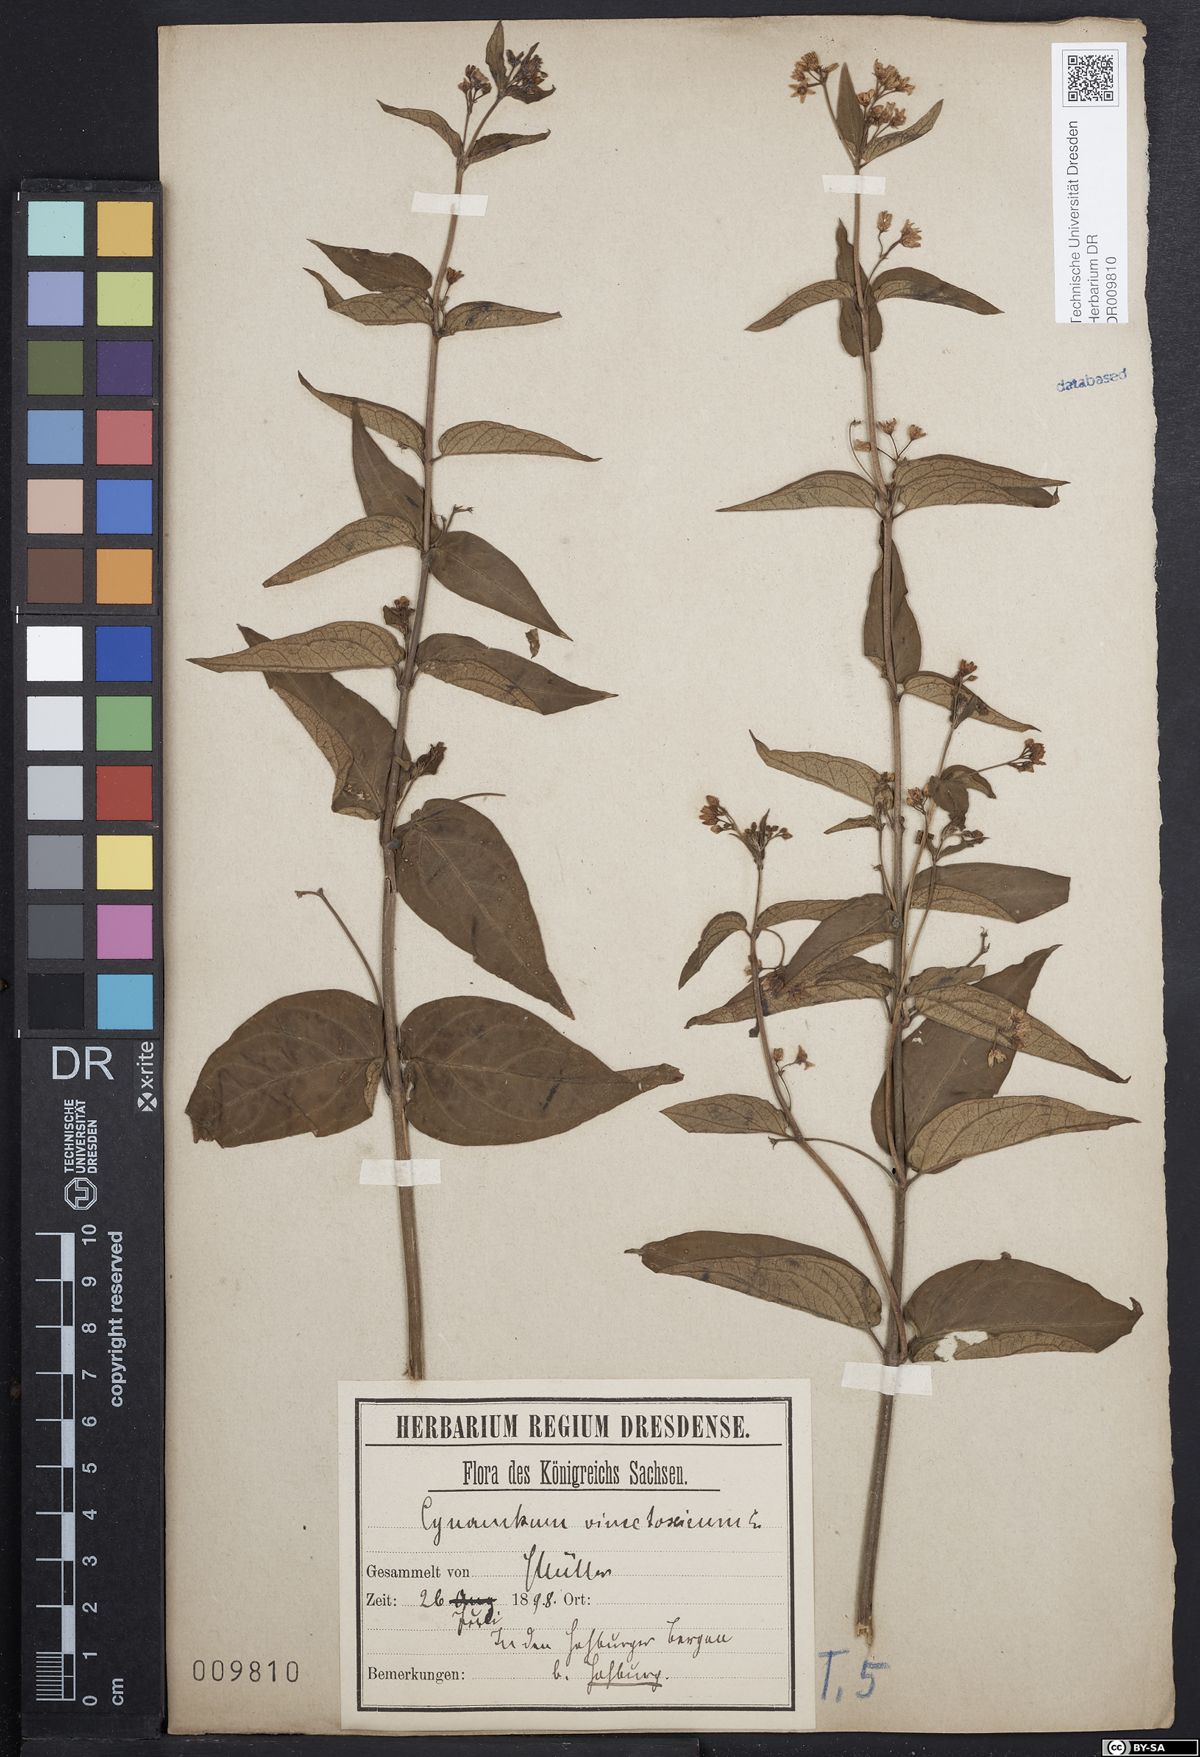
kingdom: Plantae
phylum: Tracheophyta
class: Magnoliopsida
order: Gentianales
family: Apocynaceae
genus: Vincetoxicum
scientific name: Vincetoxicum hirundinaria
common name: White swallowwort
